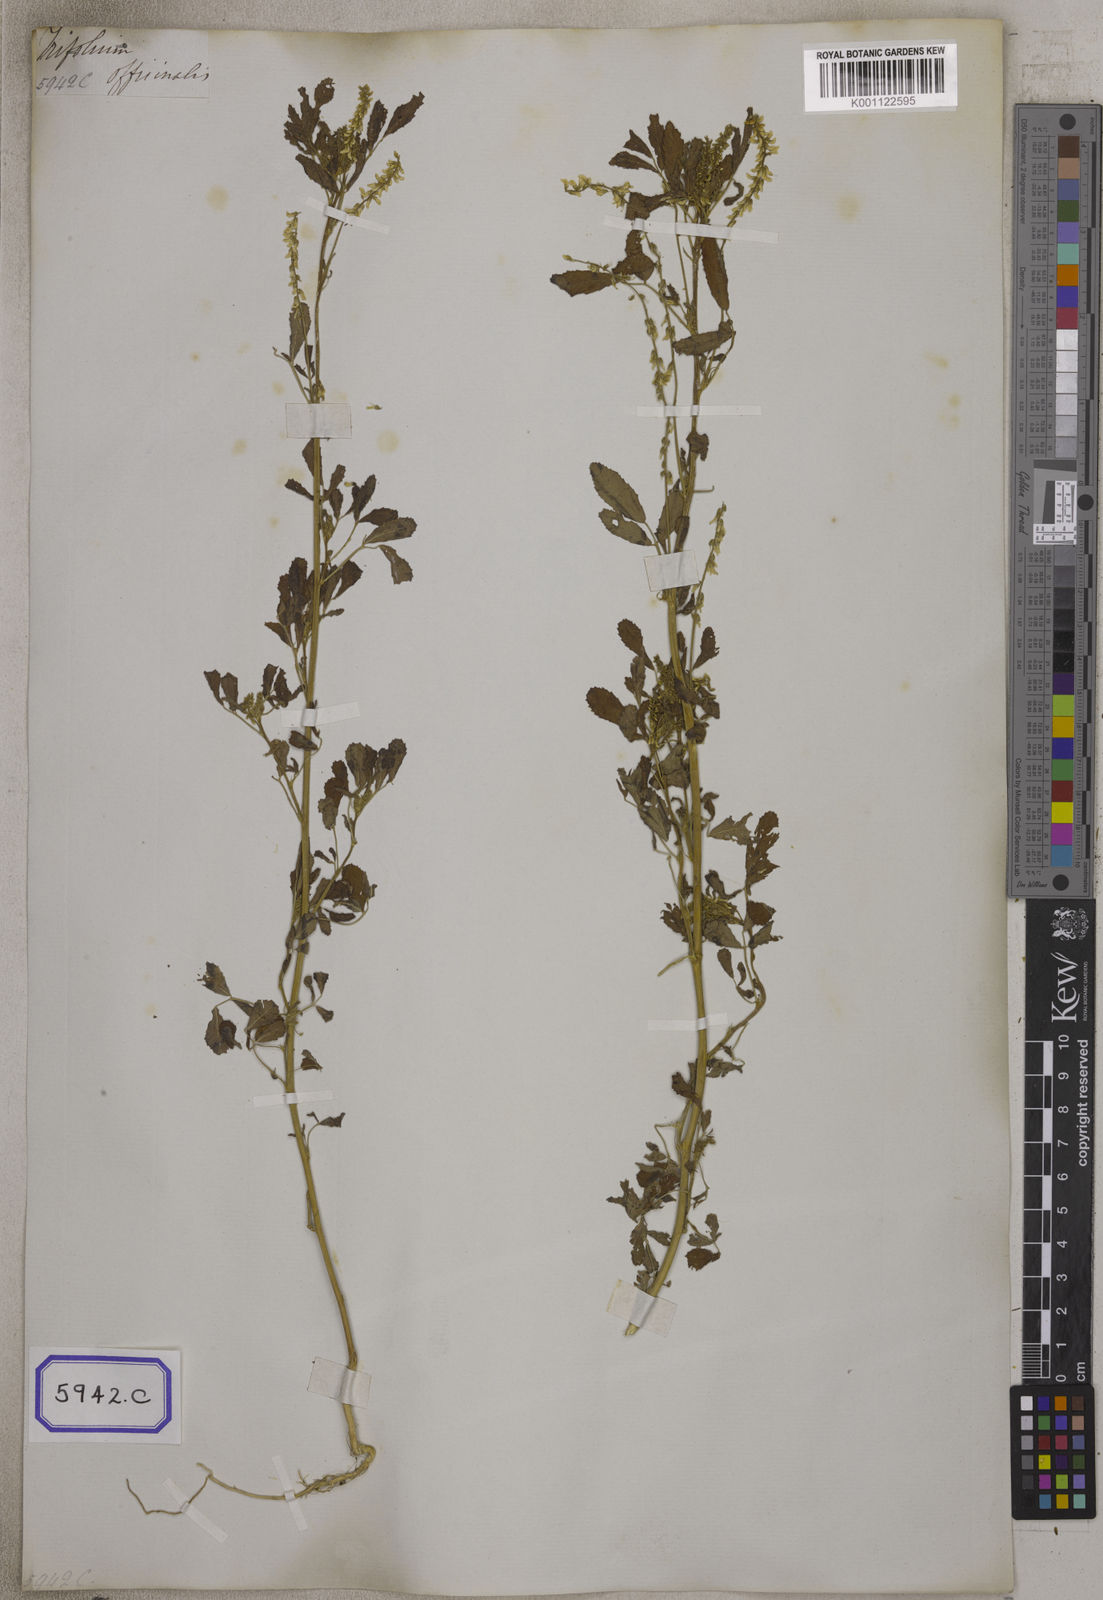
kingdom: Plantae
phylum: Tracheophyta
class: Magnoliopsida
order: Fabales
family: Fabaceae
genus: Melilotus
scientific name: Melilotus altissimus
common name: Tall melilot
